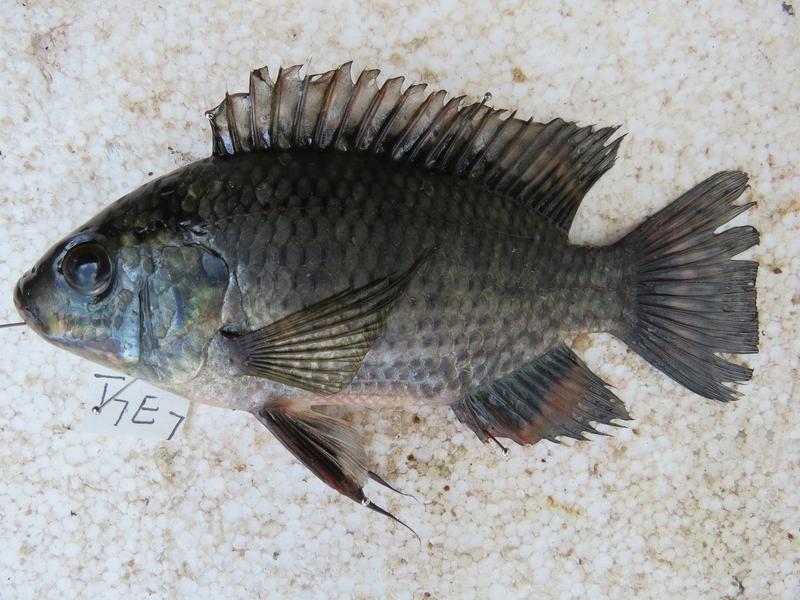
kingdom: Animalia
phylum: Chordata
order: Perciformes
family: Cichlidae
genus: Oreochromis
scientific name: Oreochromis leucostictus
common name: Blue spotted tilapia
